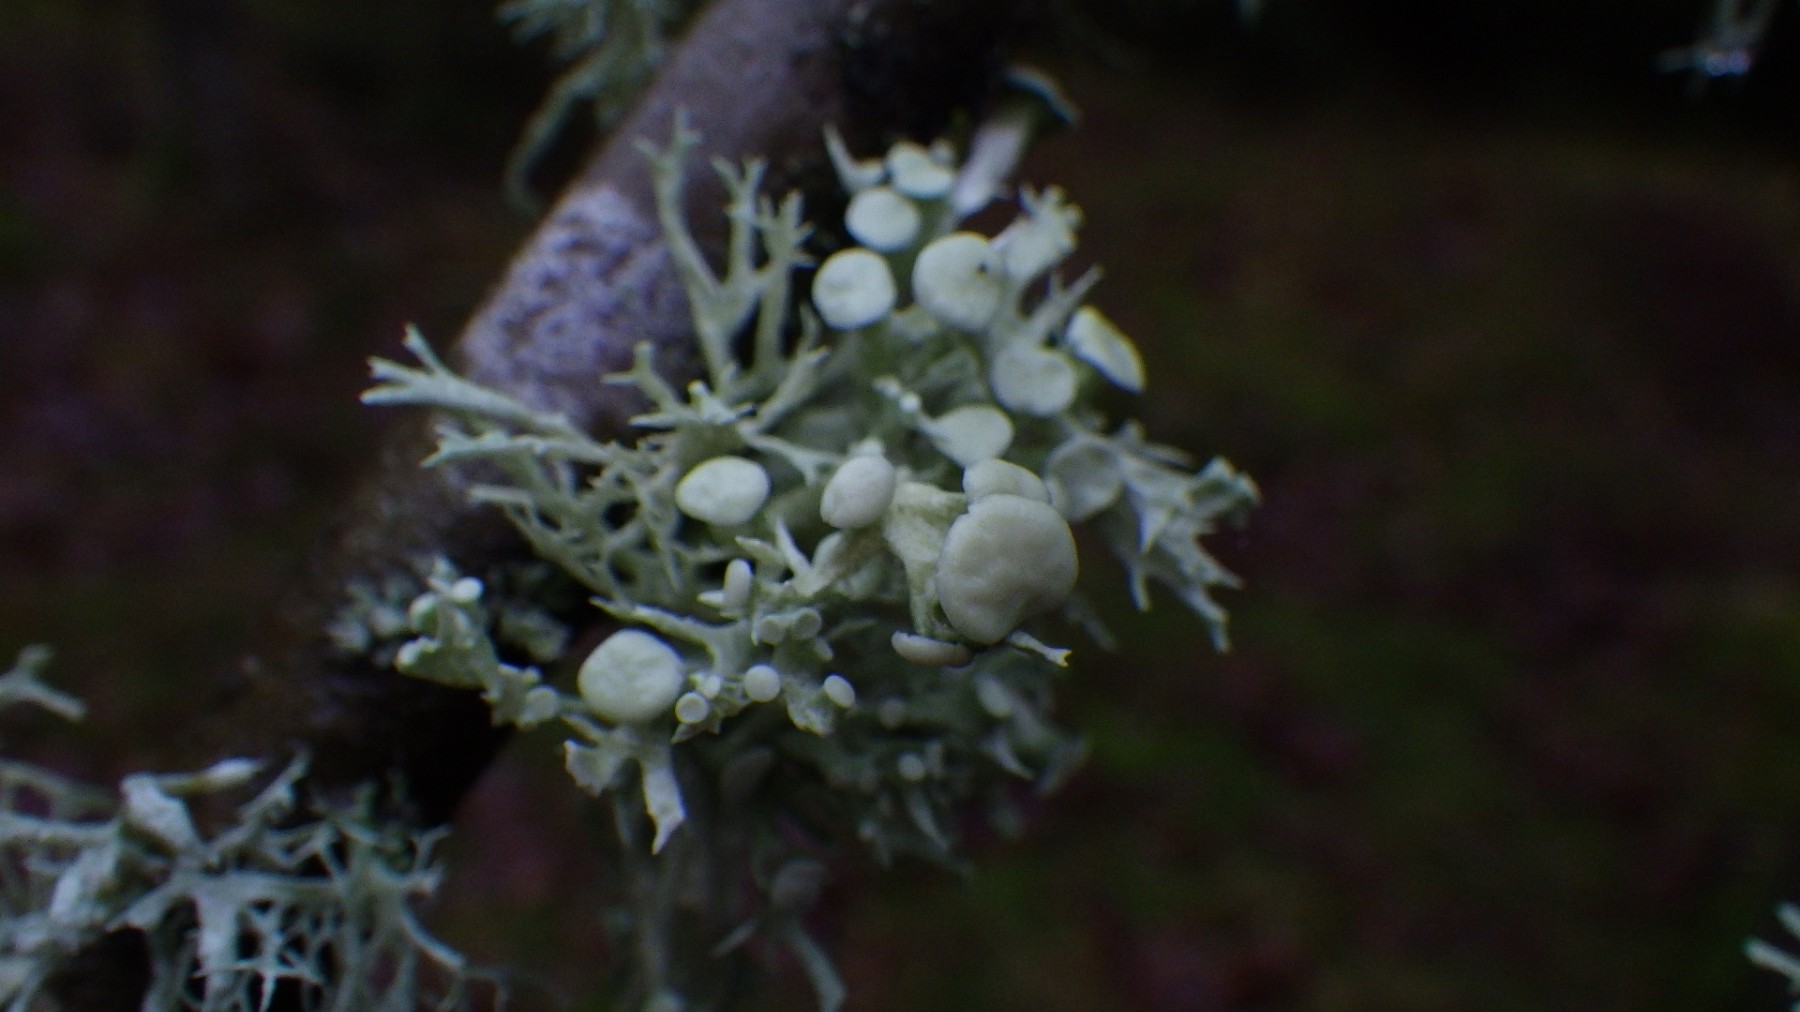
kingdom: Fungi
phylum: Ascomycota
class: Lecanoromycetes
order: Lecanorales
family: Ramalinaceae
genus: Ramalina
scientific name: Ramalina fastigiata
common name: tue-grenlav
